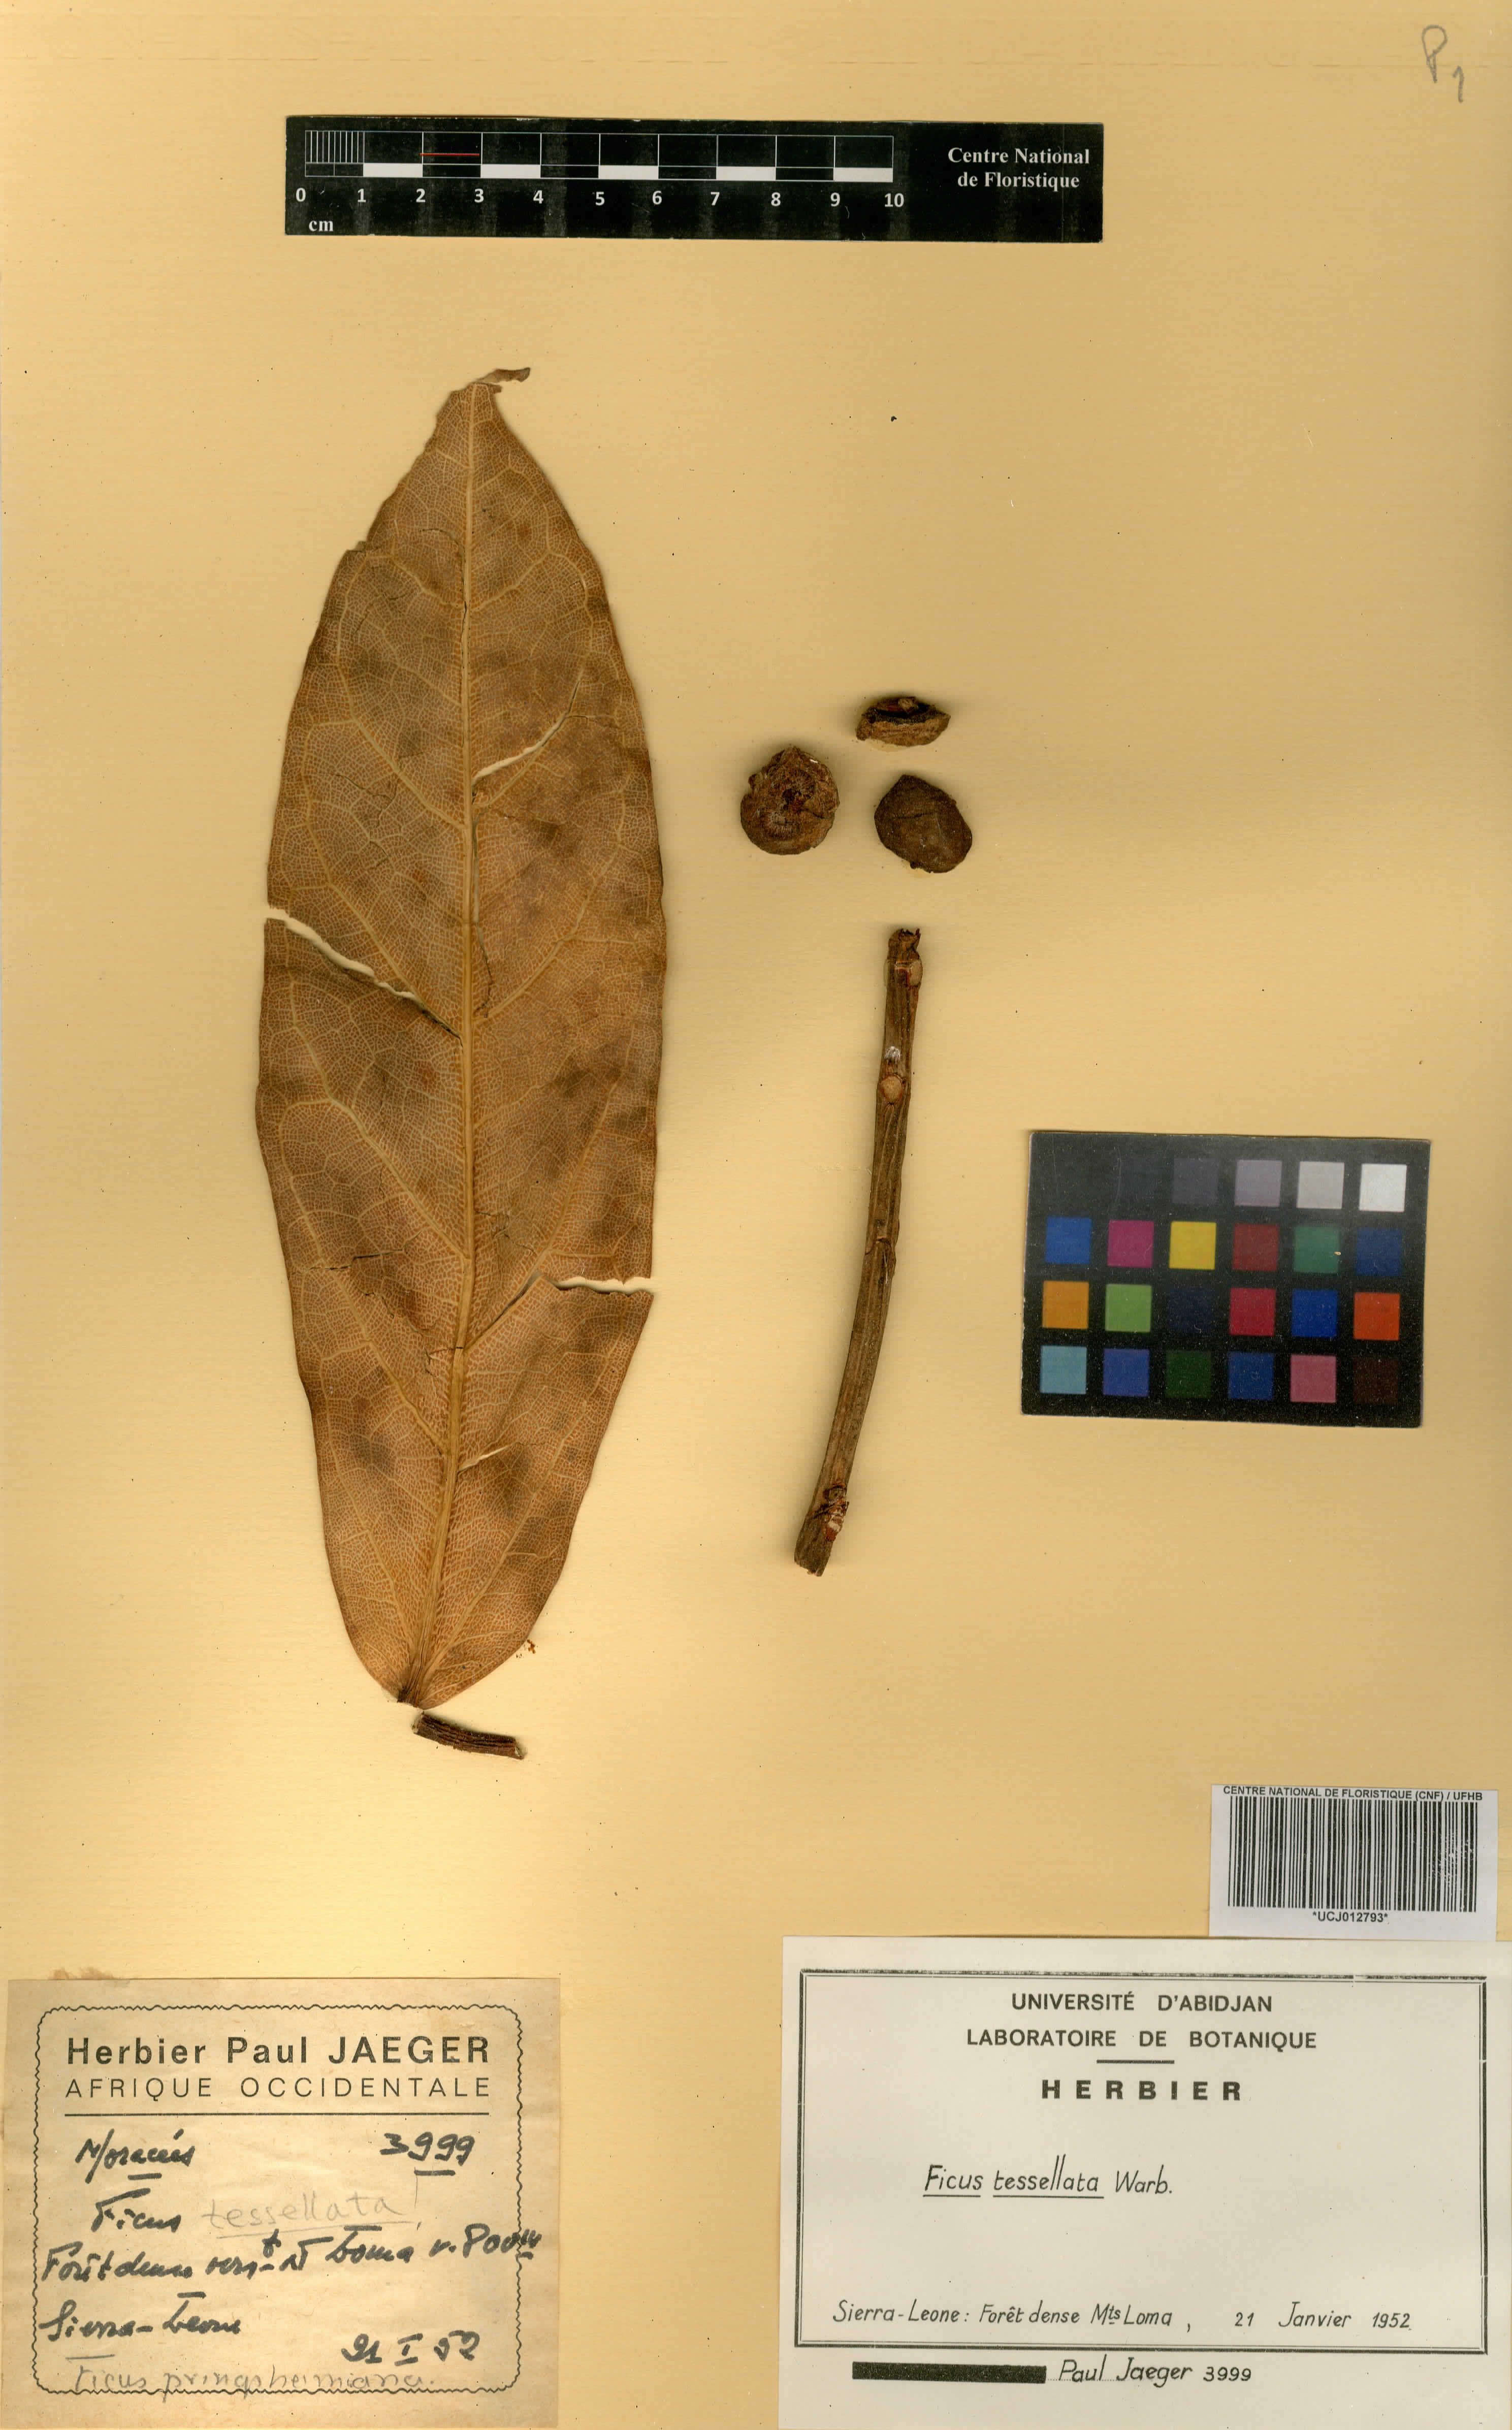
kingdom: Plantae
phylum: Tracheophyta
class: Magnoliopsida
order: Rosales
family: Moraceae
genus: Ficus
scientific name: Ficus tesselata
